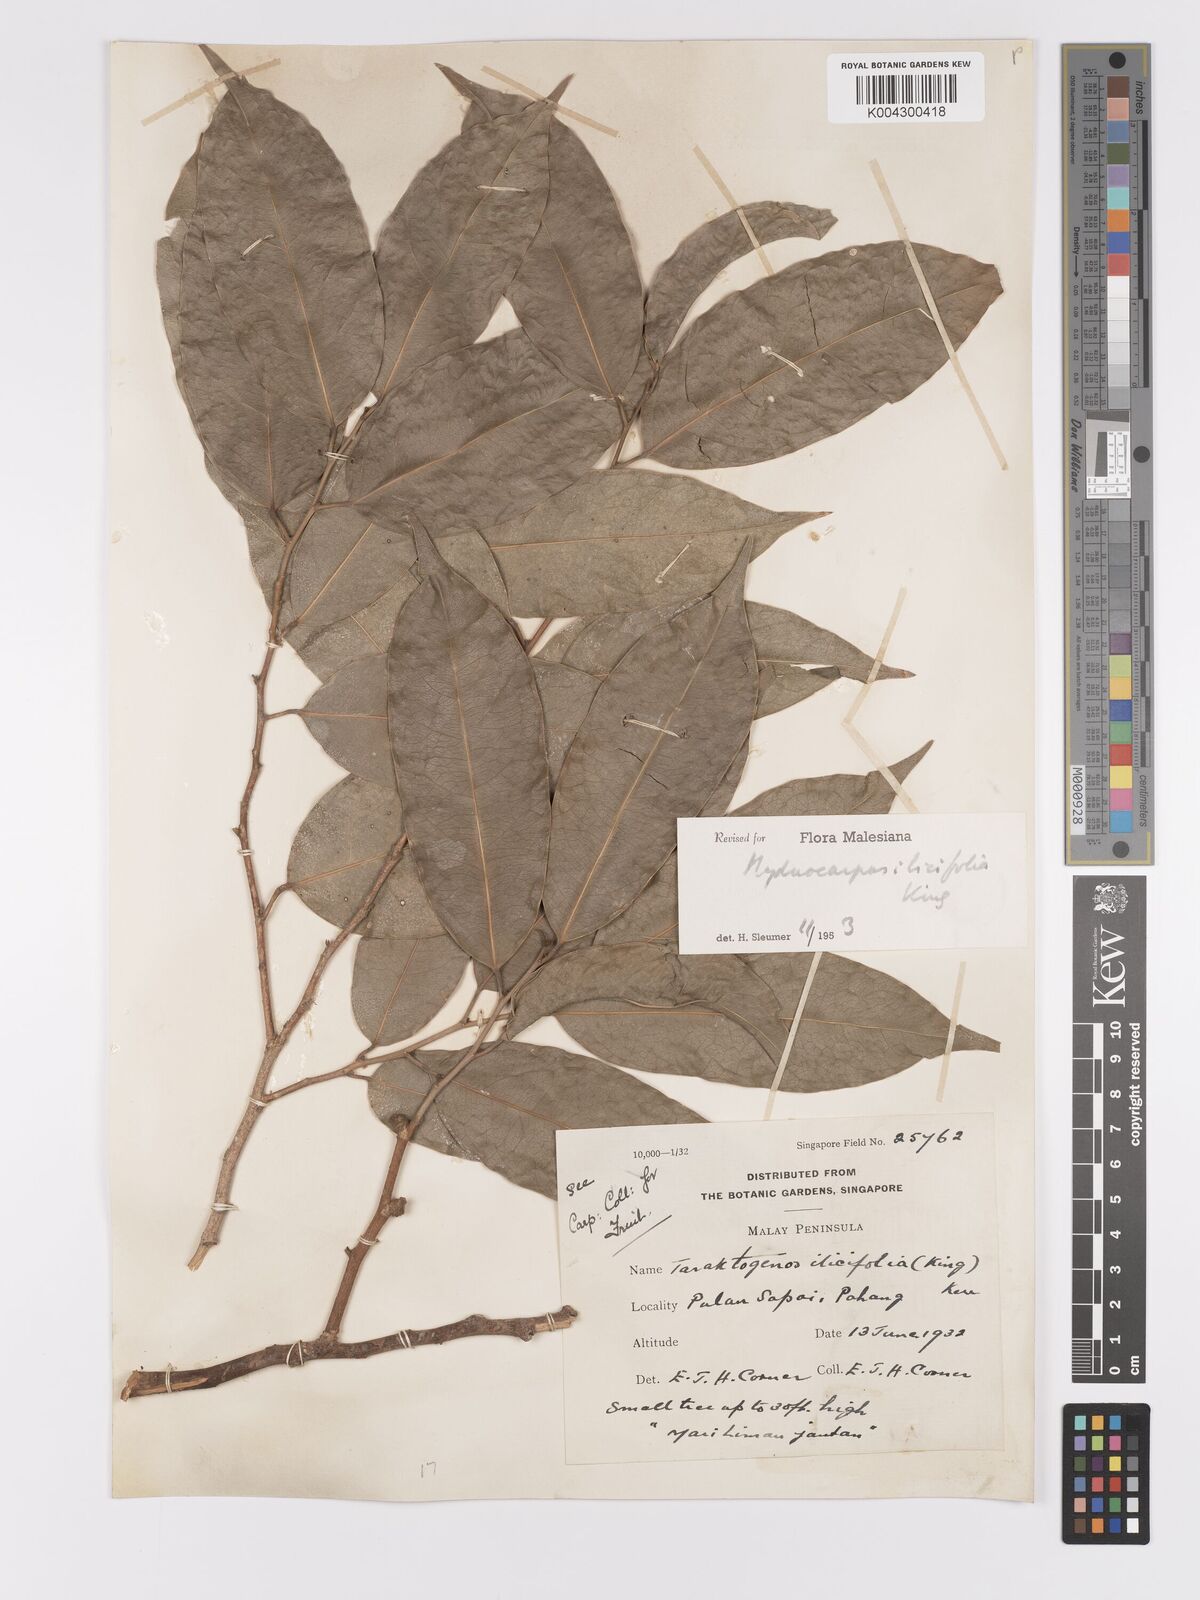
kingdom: Plantae
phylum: Tracheophyta
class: Magnoliopsida
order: Malpighiales
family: Achariaceae
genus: Hydnocarpus
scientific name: Hydnocarpus ilicifolius
